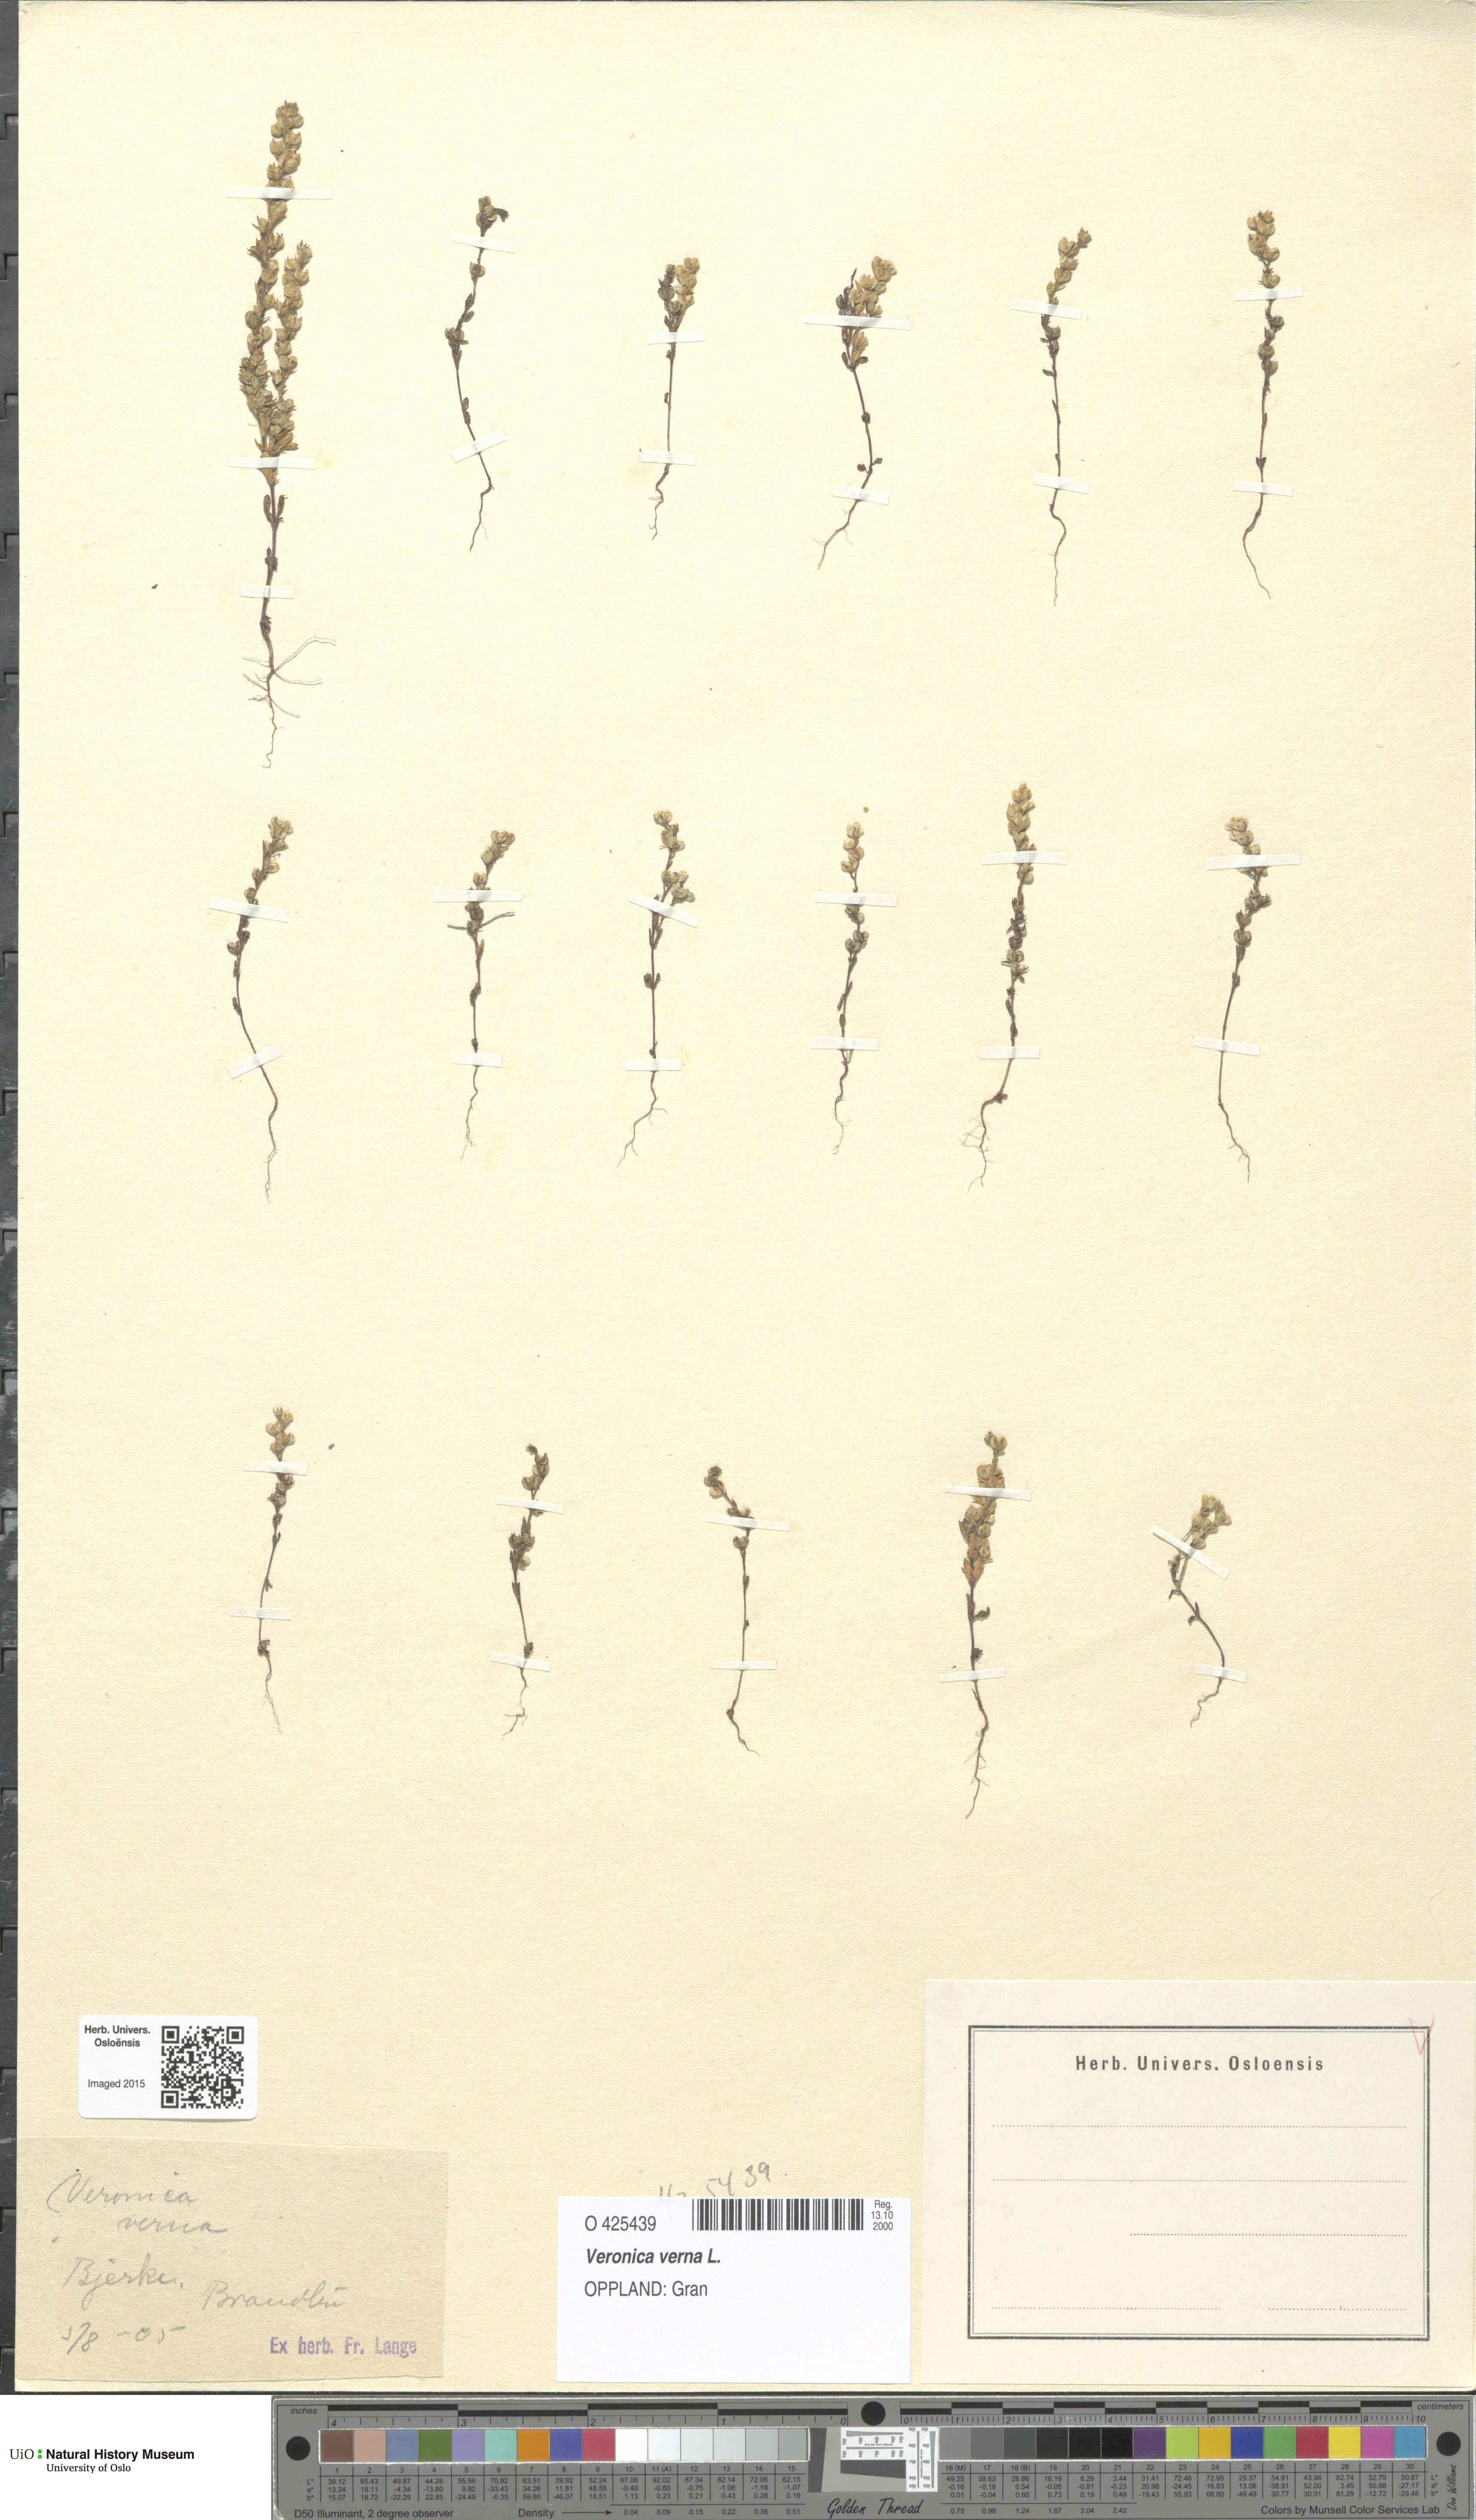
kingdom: Plantae
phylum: Tracheophyta
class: Magnoliopsida
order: Lamiales
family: Plantaginaceae
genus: Veronica
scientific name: Veronica verna
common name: Spring speedwell
